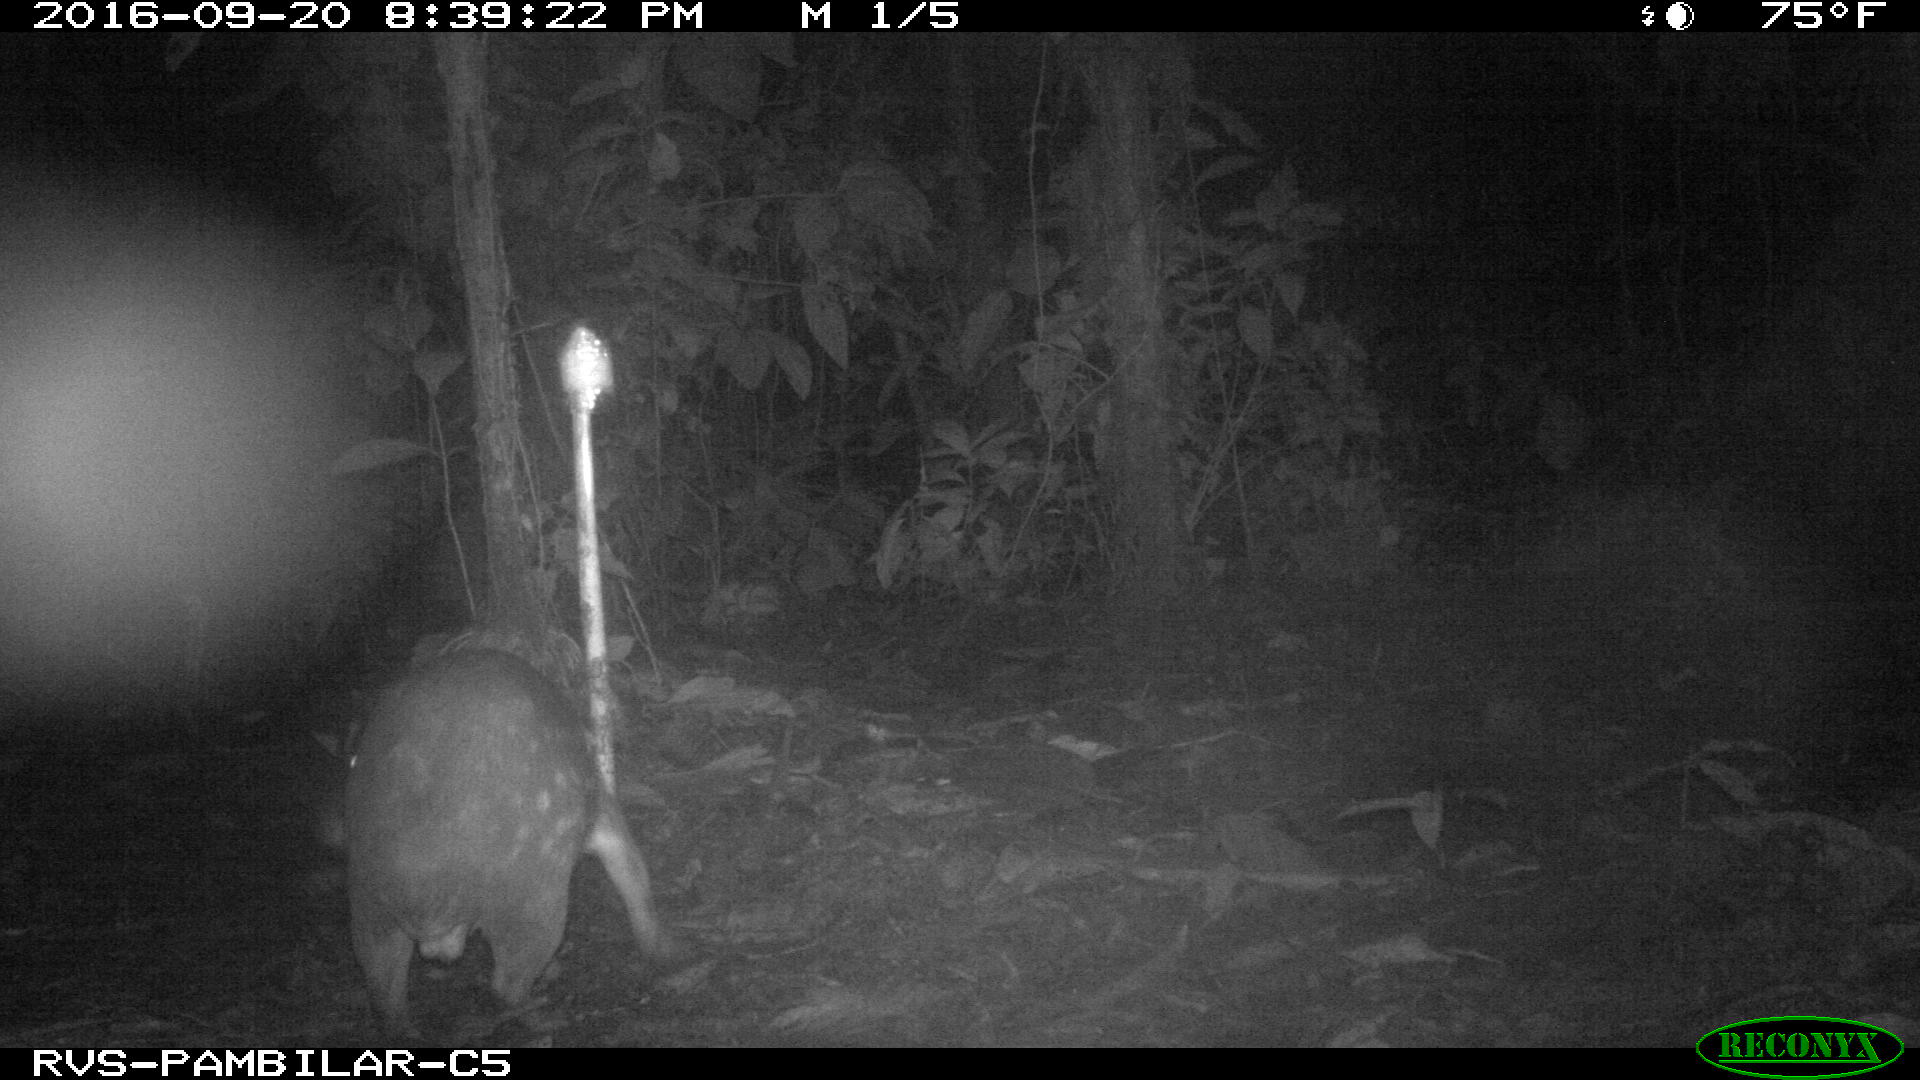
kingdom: Animalia
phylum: Chordata
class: Mammalia
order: Rodentia
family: Cuniculidae
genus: Cuniculus
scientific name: Cuniculus paca
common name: Lowland paca
